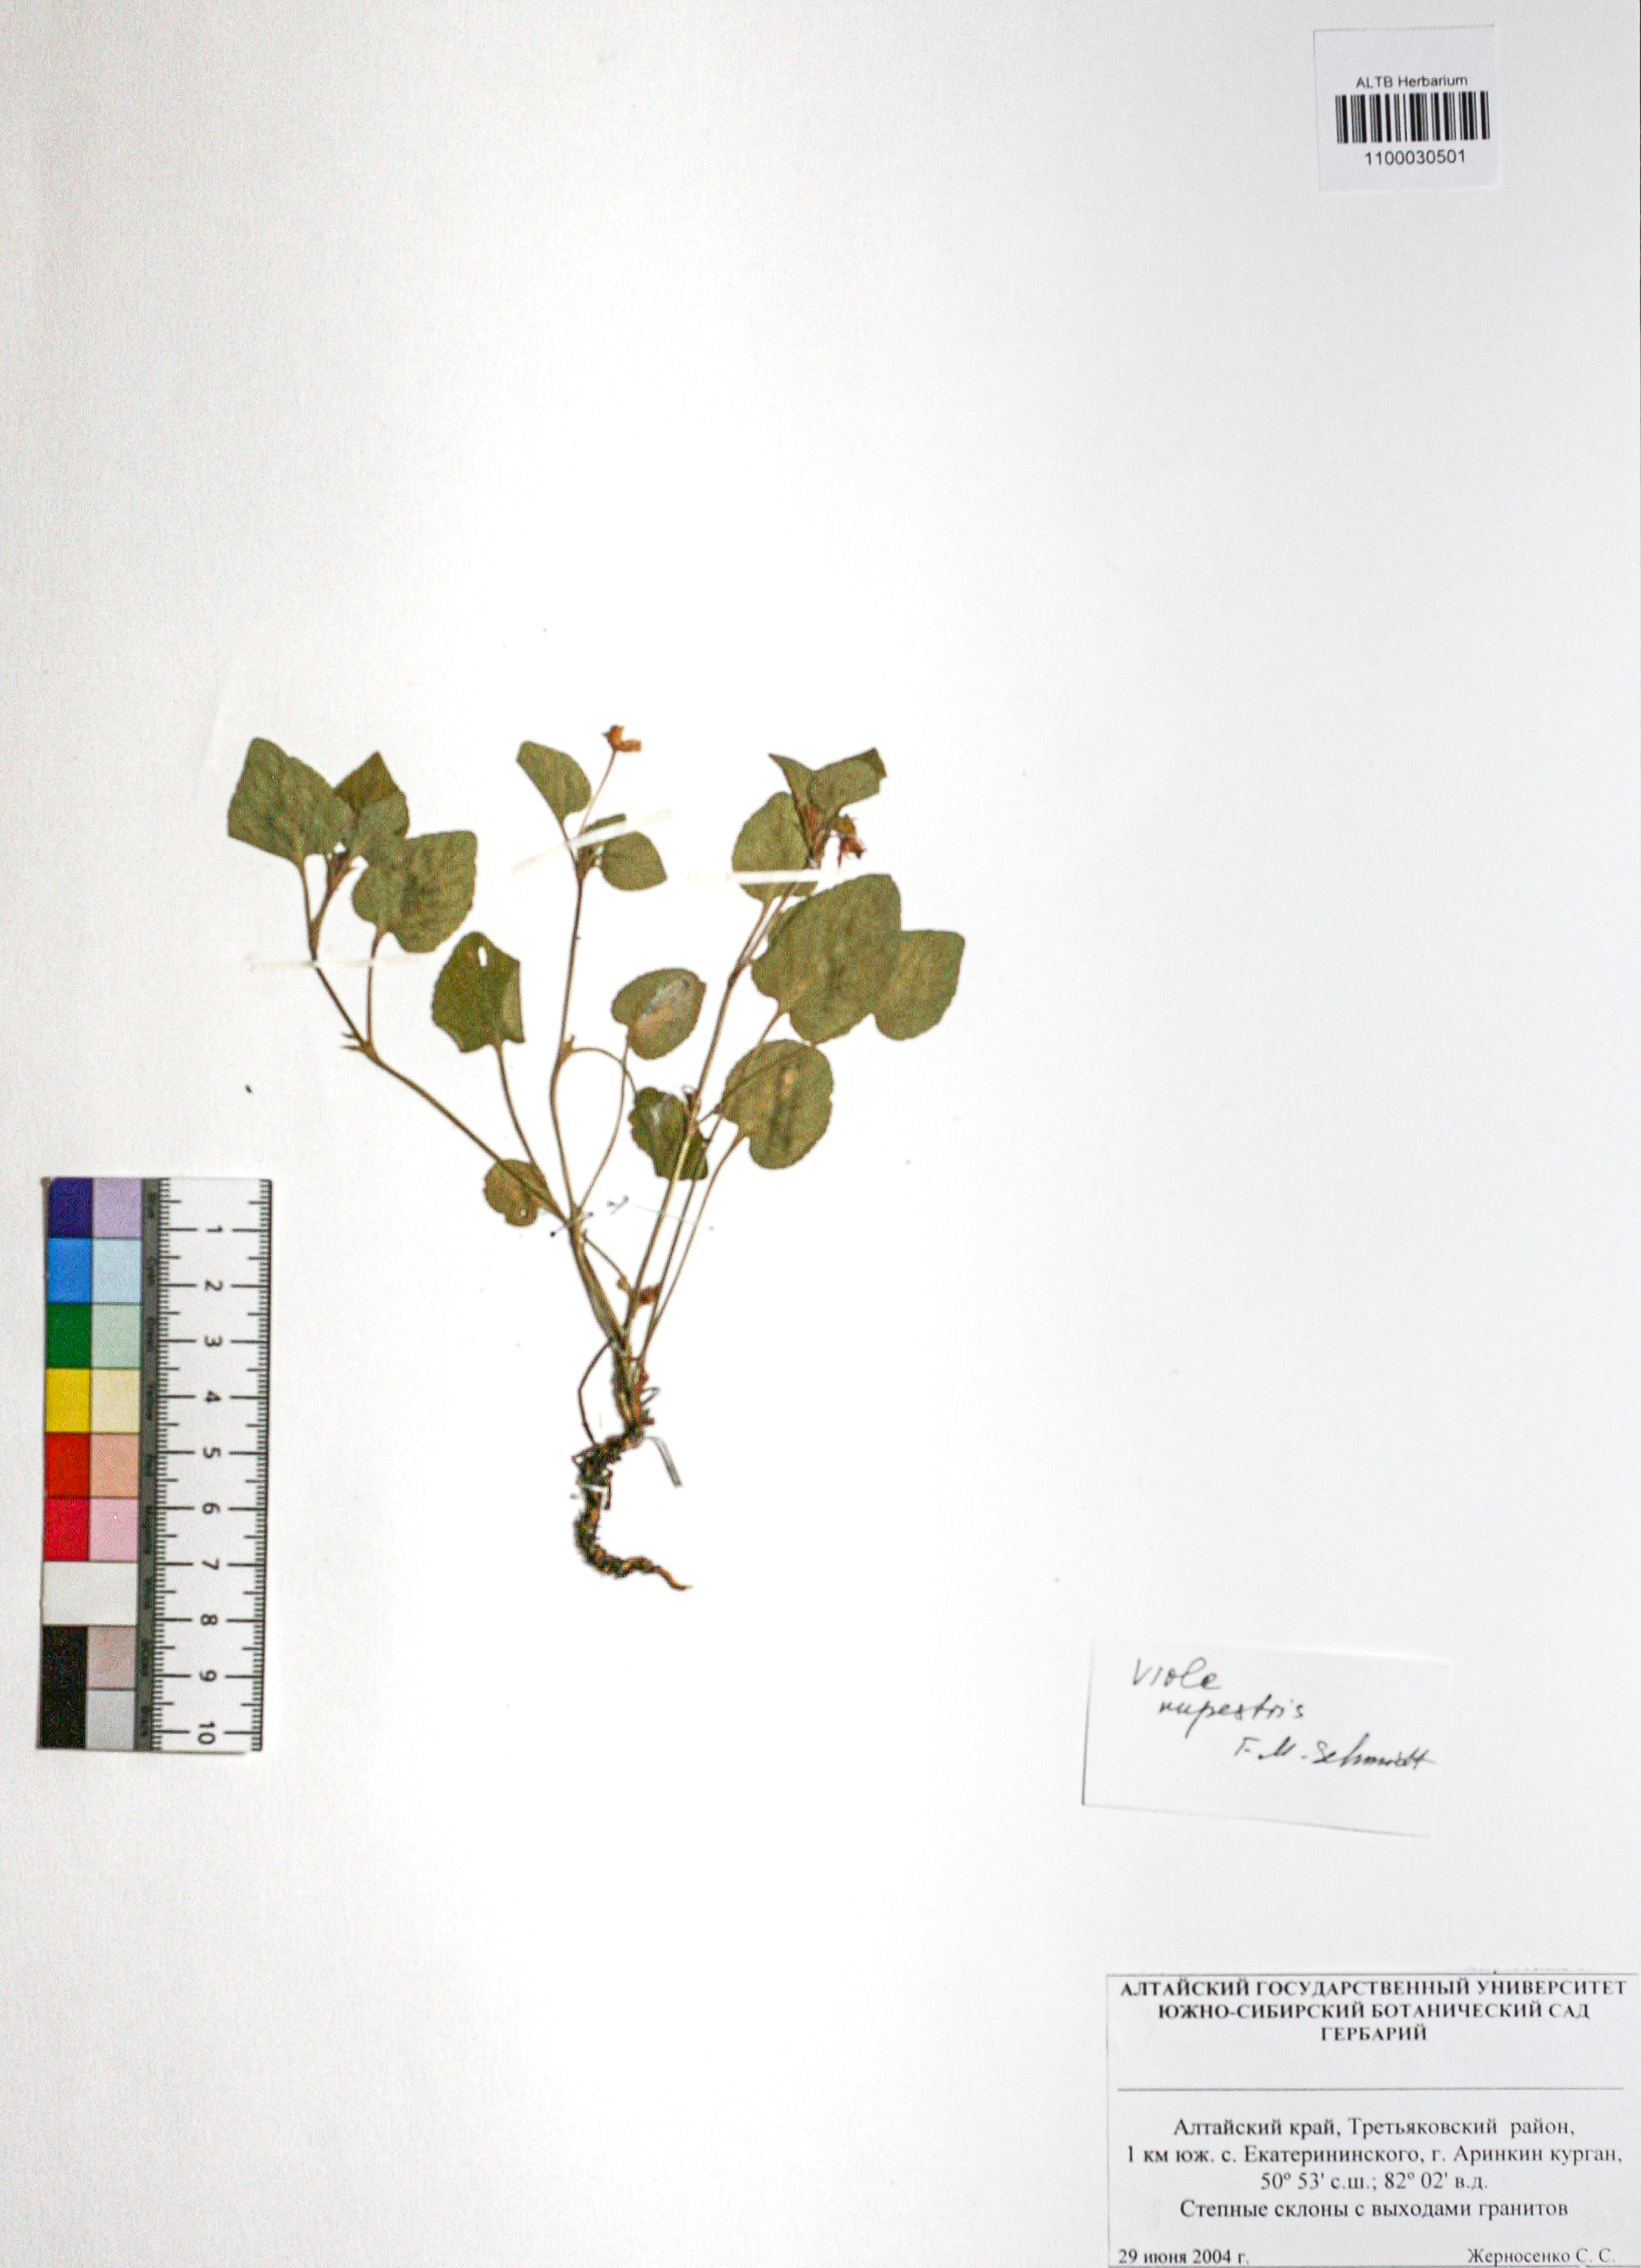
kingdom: Plantae
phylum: Tracheophyta
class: Magnoliopsida
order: Malpighiales
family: Violaceae
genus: Viola
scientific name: Viola rupestris
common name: Teesdale violet
